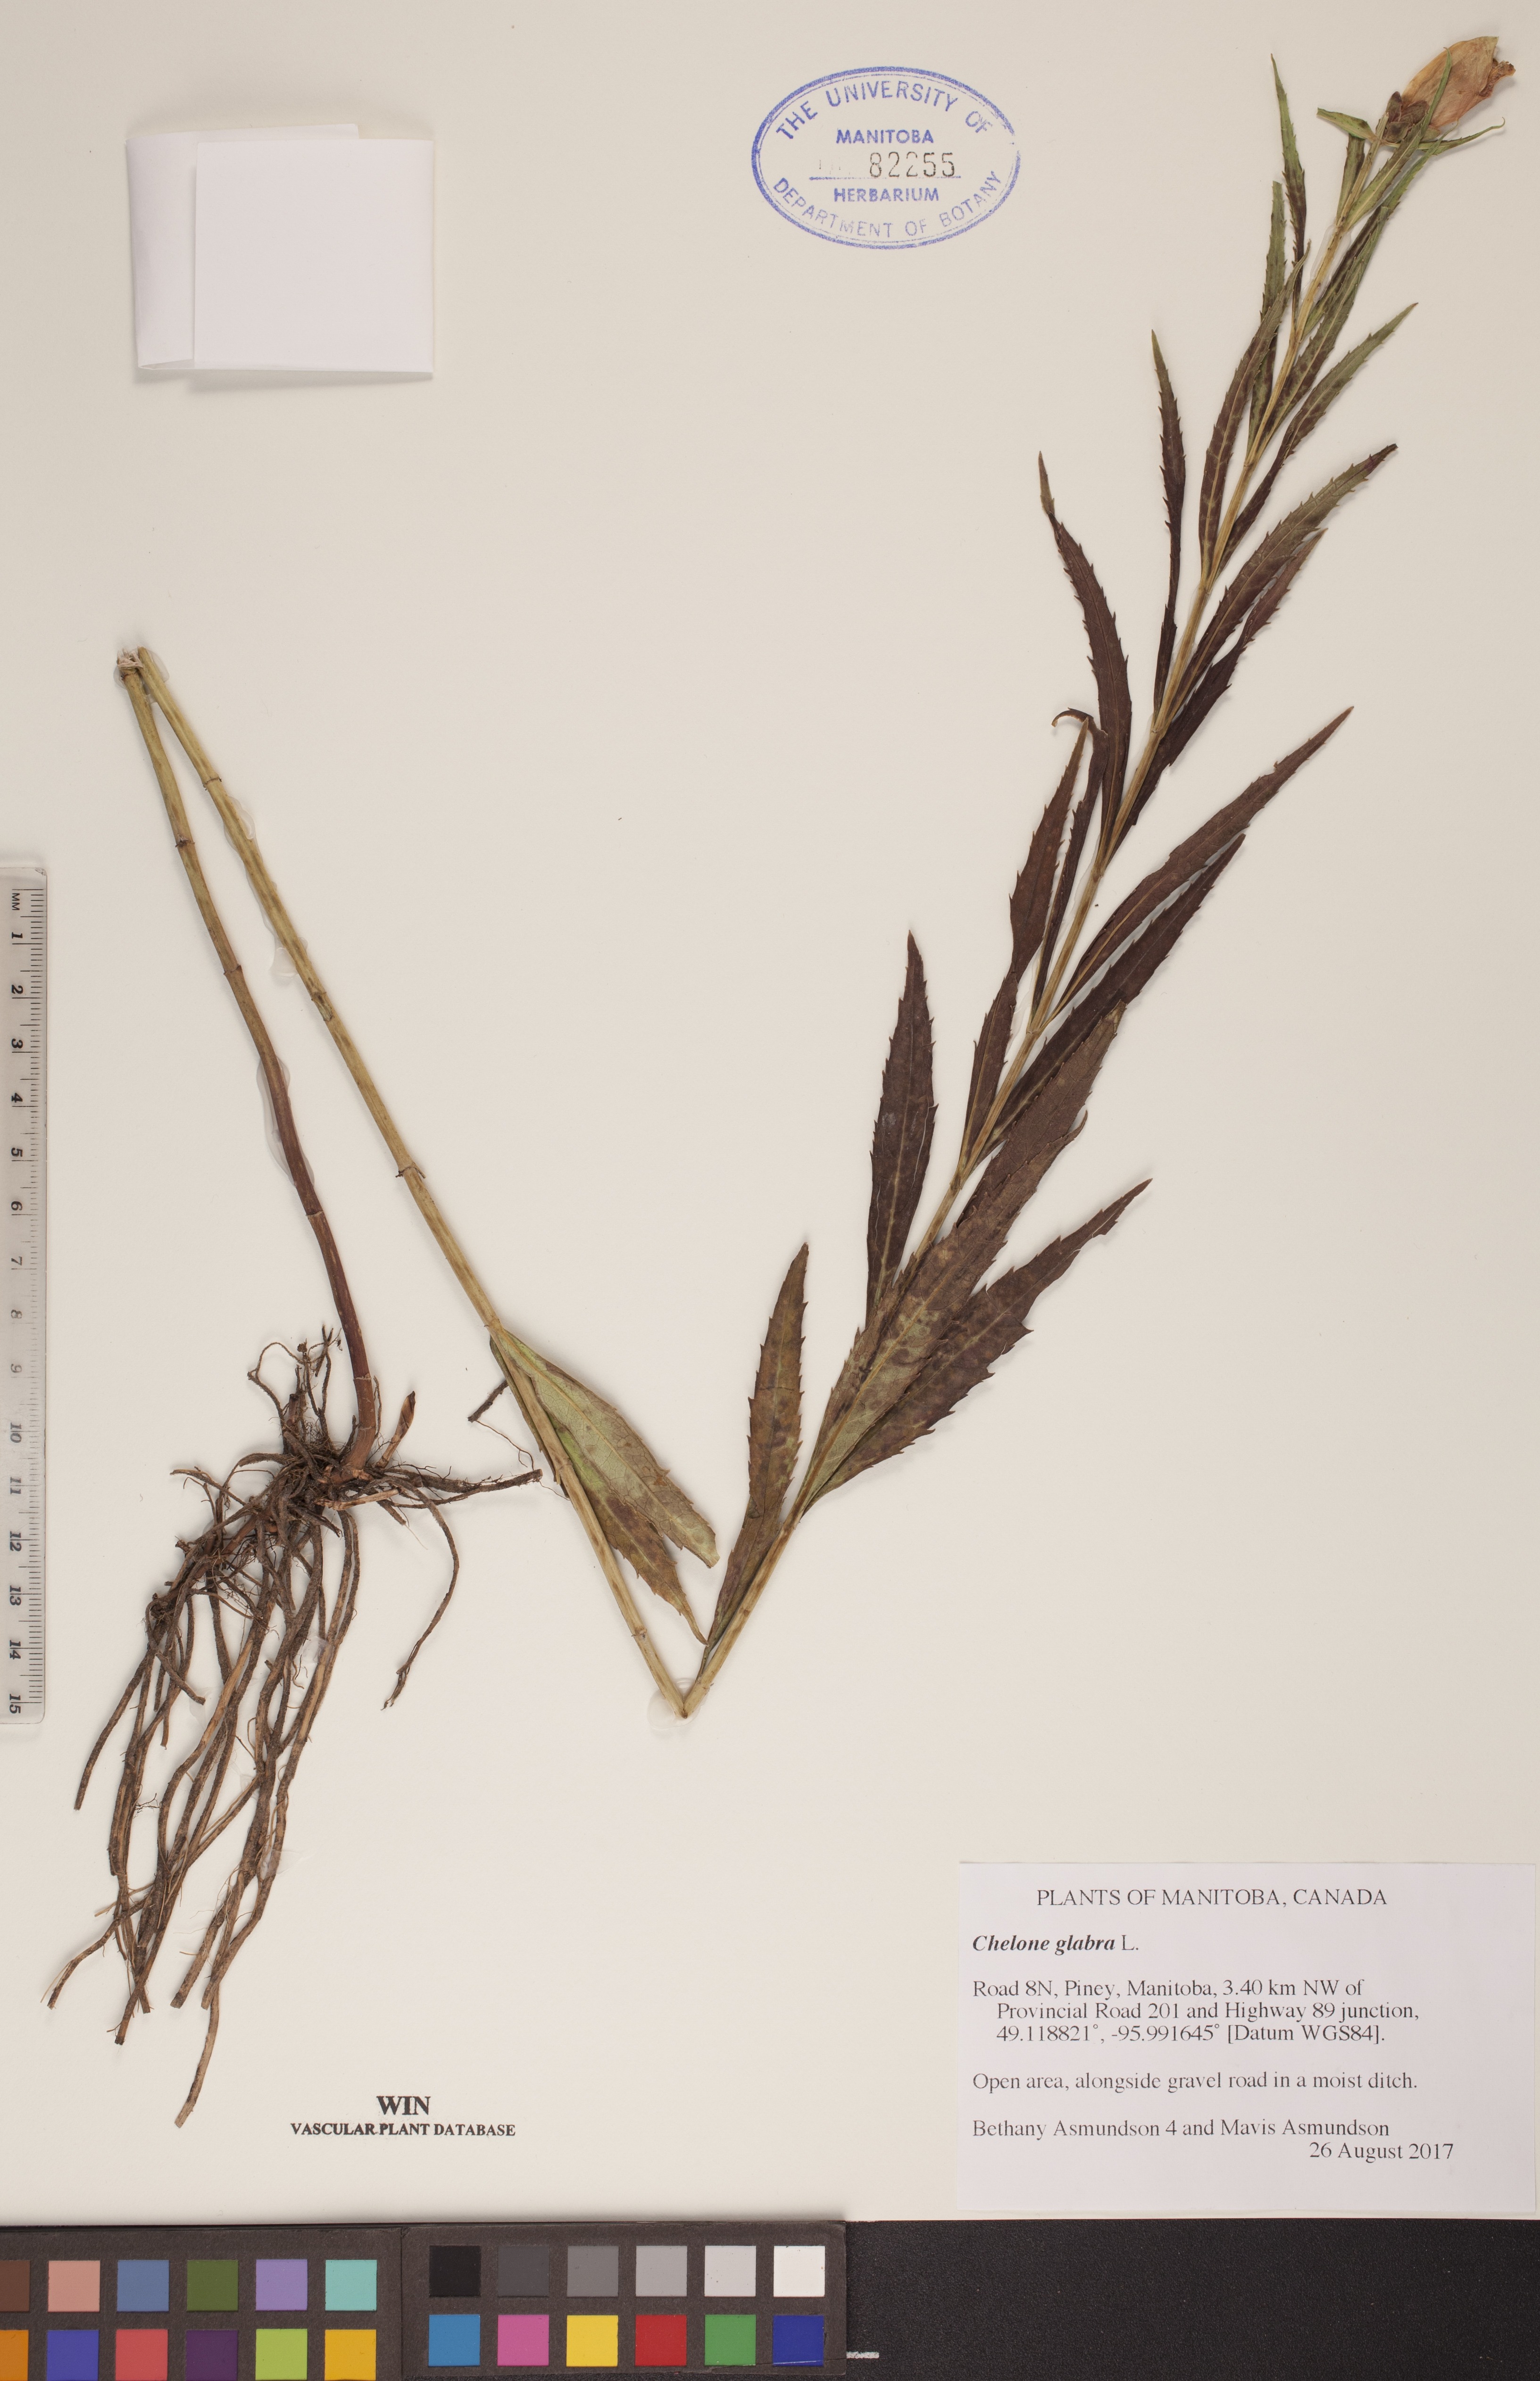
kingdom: Plantae
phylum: Tracheophyta
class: Magnoliopsida
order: Lamiales
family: Plantaginaceae
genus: Chelone
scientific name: Chelone glabra
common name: Snakehead
